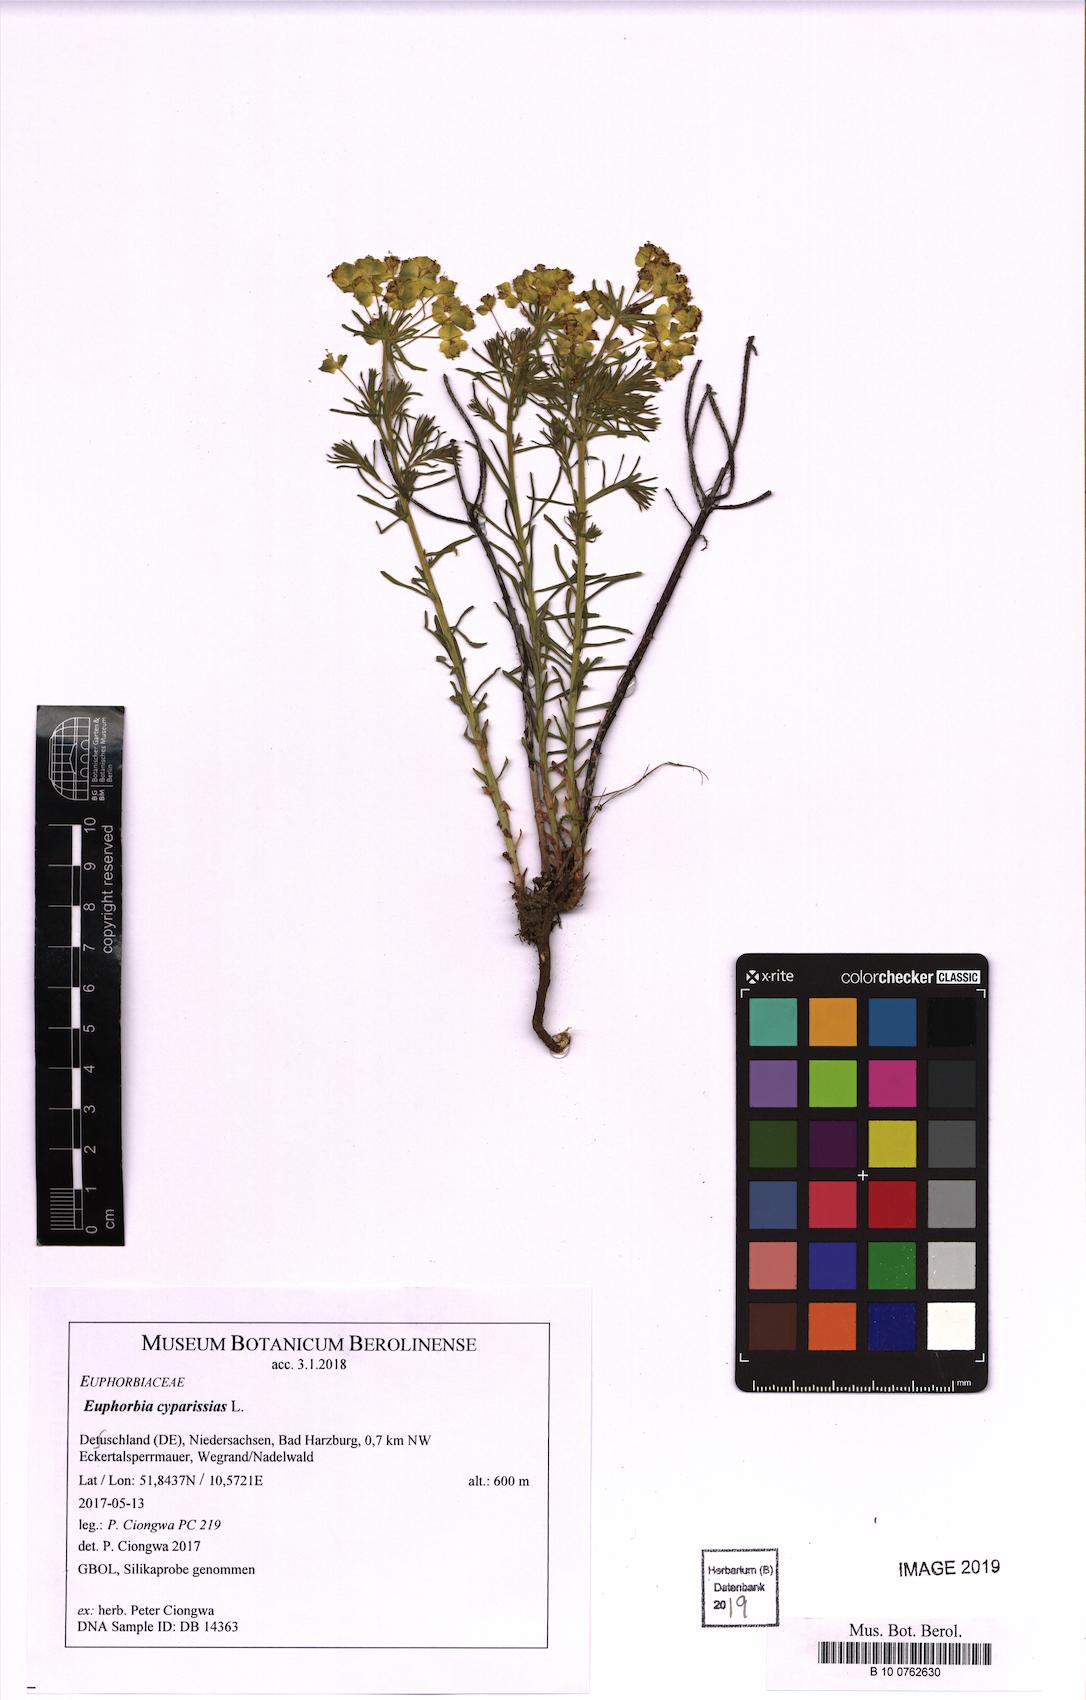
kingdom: Plantae
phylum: Tracheophyta
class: Magnoliopsida
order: Malpighiales
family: Euphorbiaceae
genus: Euphorbia
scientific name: Euphorbia cyparissias
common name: Cypress spurge
